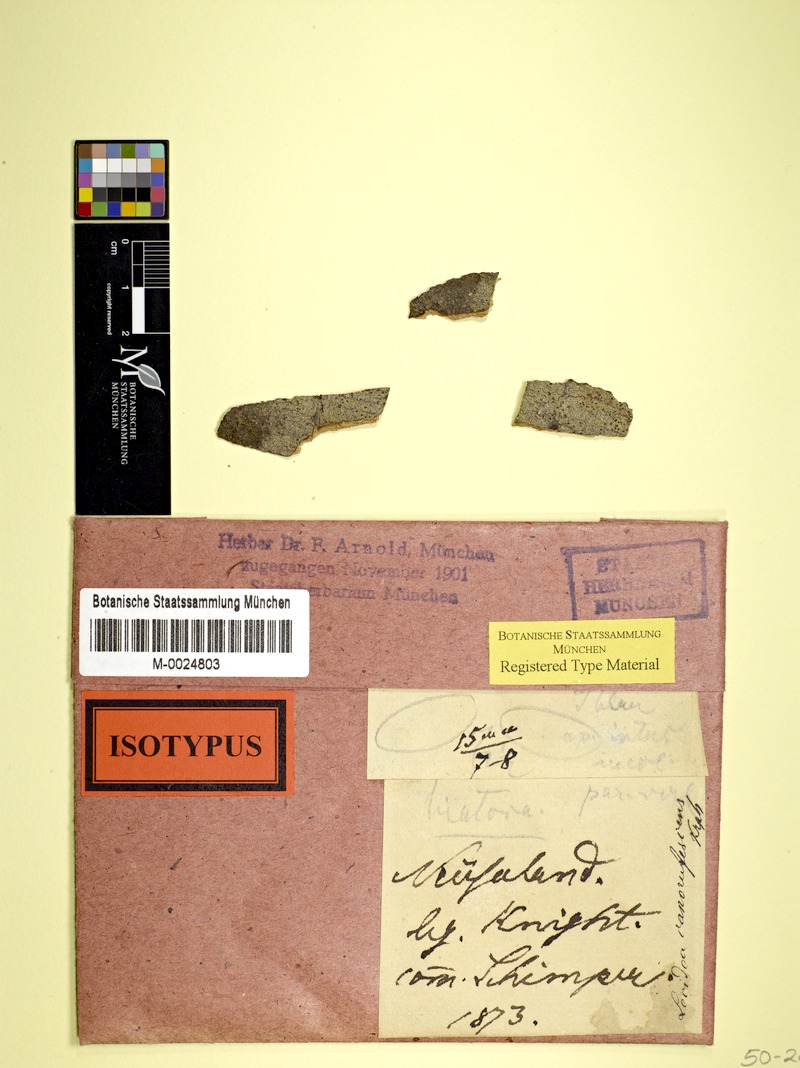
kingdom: Fungi
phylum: Ascomycota
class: Lecanoromycetes
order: Lecanorales
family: Malmideaceae
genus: Australidea
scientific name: Australidea canorufescens
